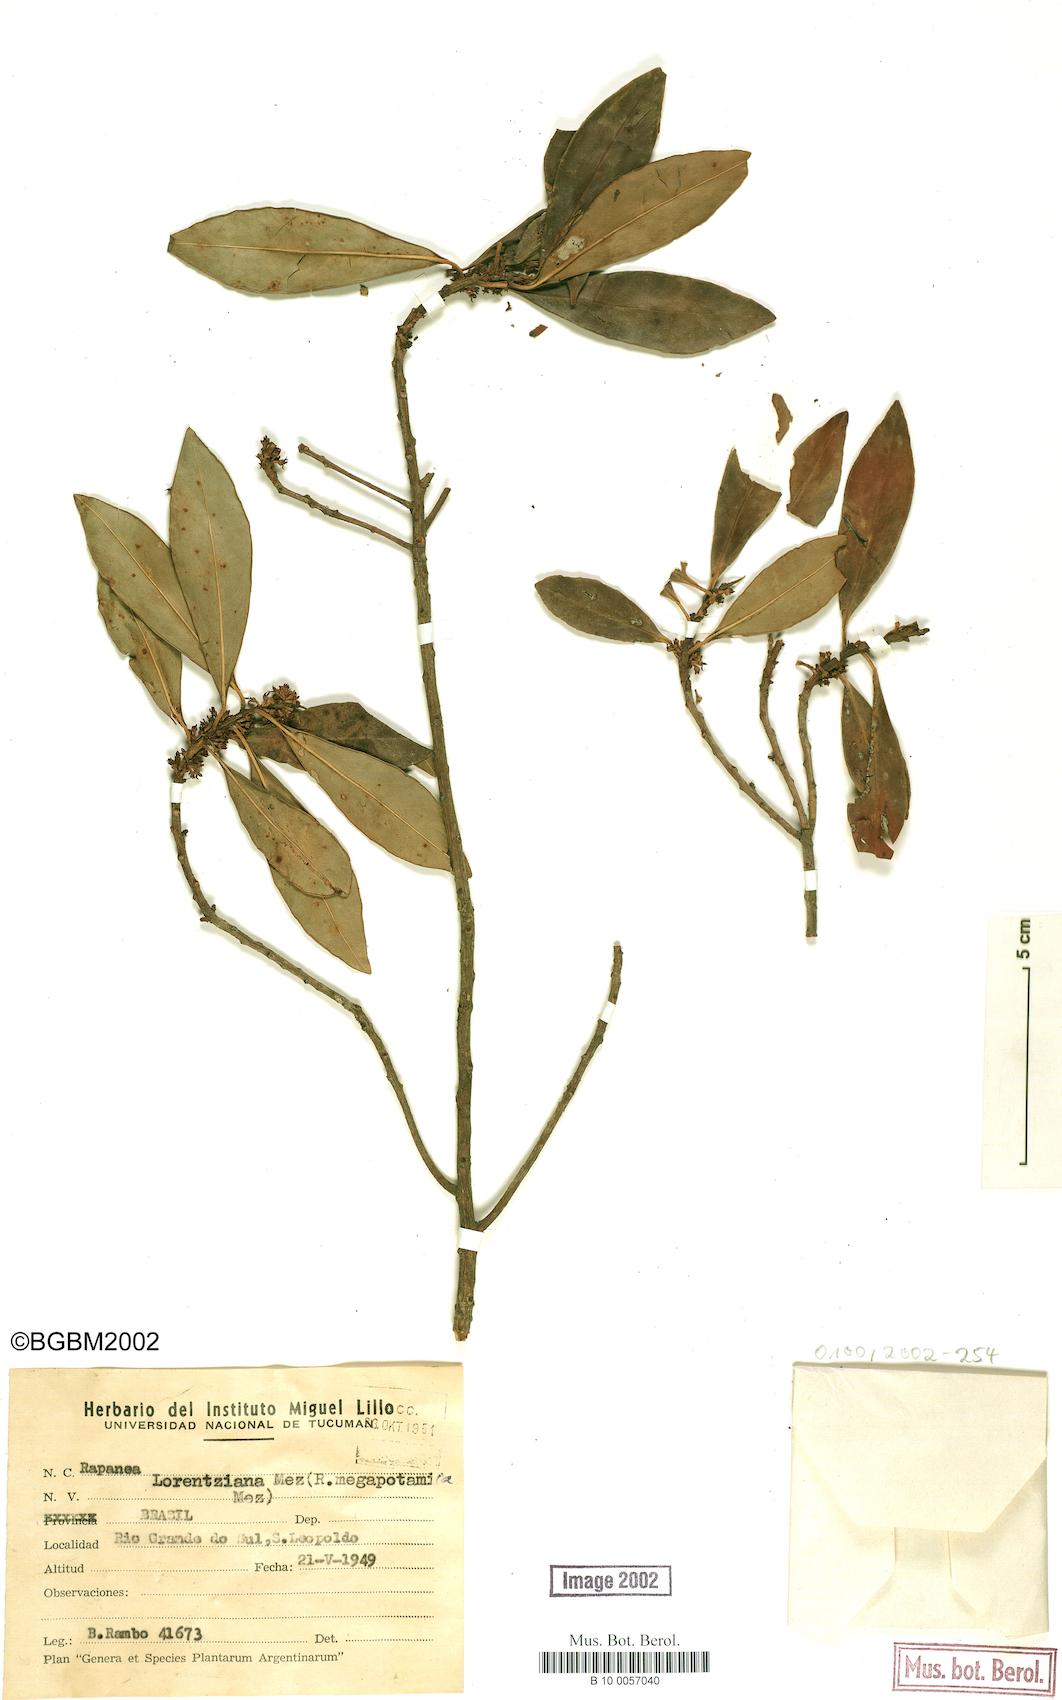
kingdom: Plantae
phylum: Tracheophyta
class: Magnoliopsida
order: Ericales
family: Primulaceae
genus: Myrsine
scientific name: Myrsine lorentziana
